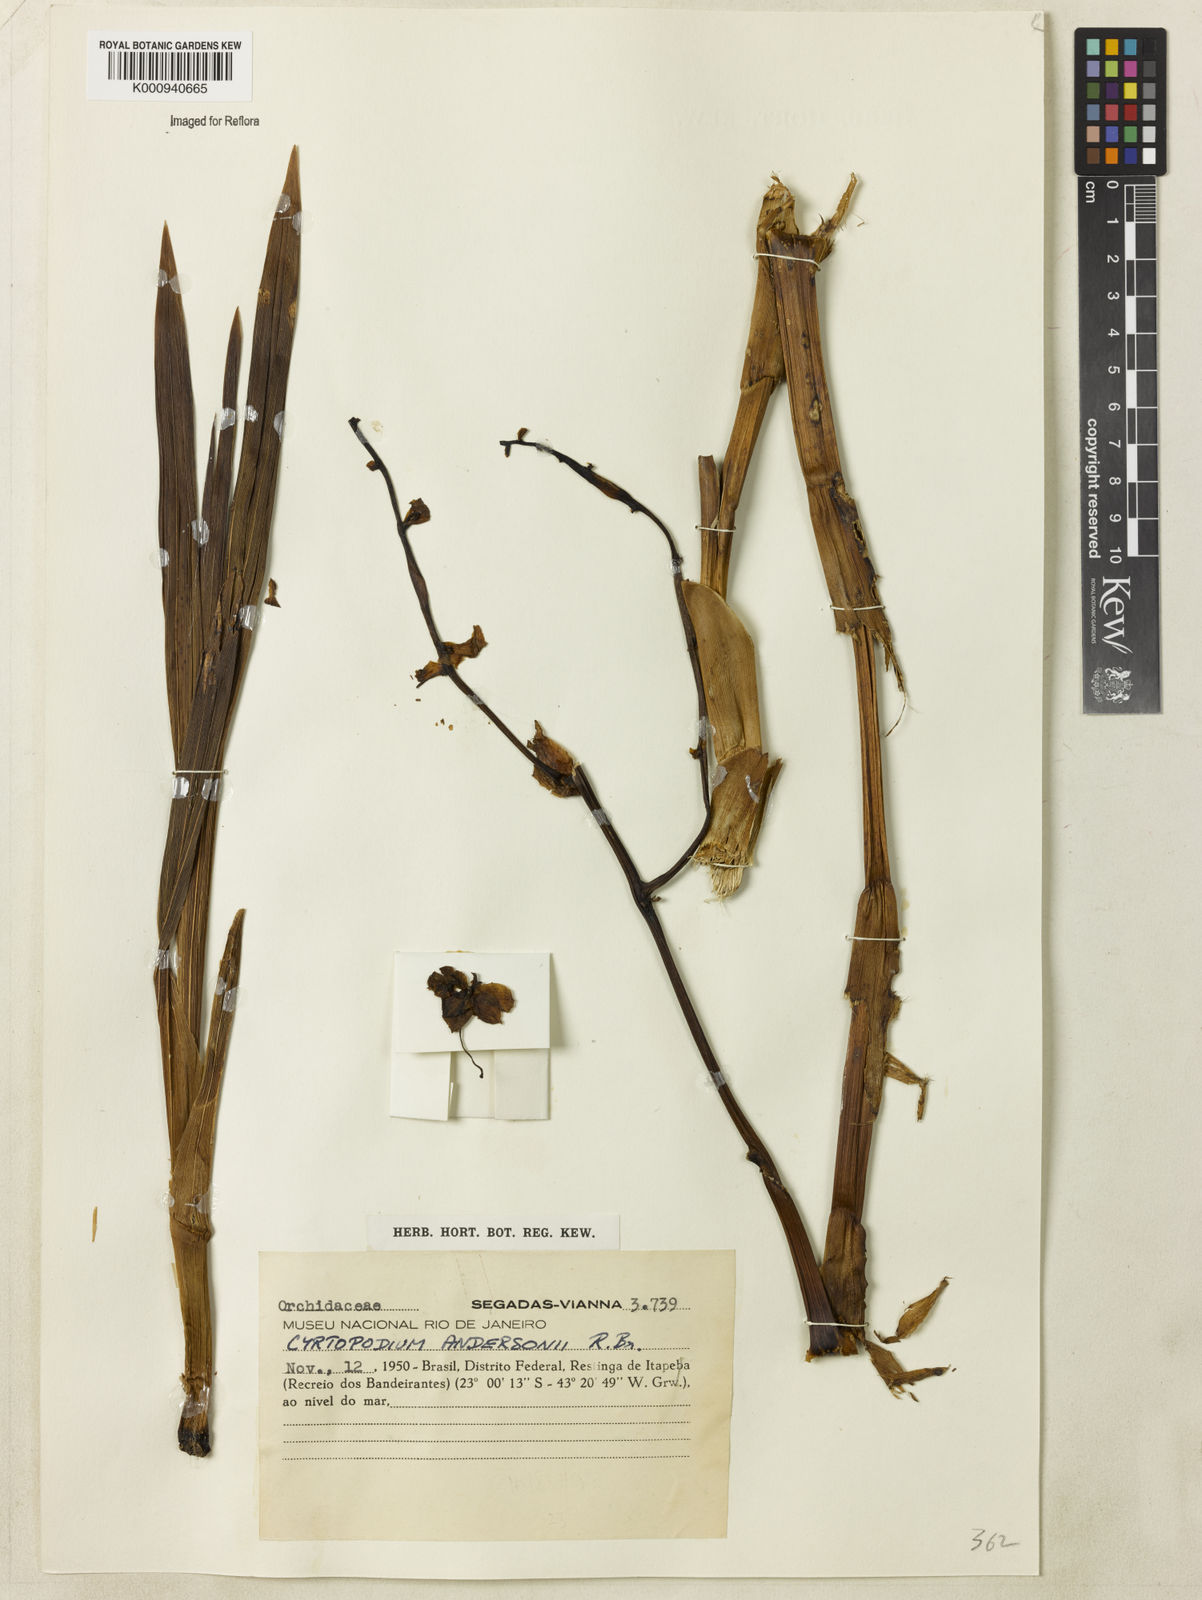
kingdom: Plantae
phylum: Tracheophyta
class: Liliopsida
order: Asparagales
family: Orchidaceae
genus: Cyrtopodium
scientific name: Cyrtopodium flavum
